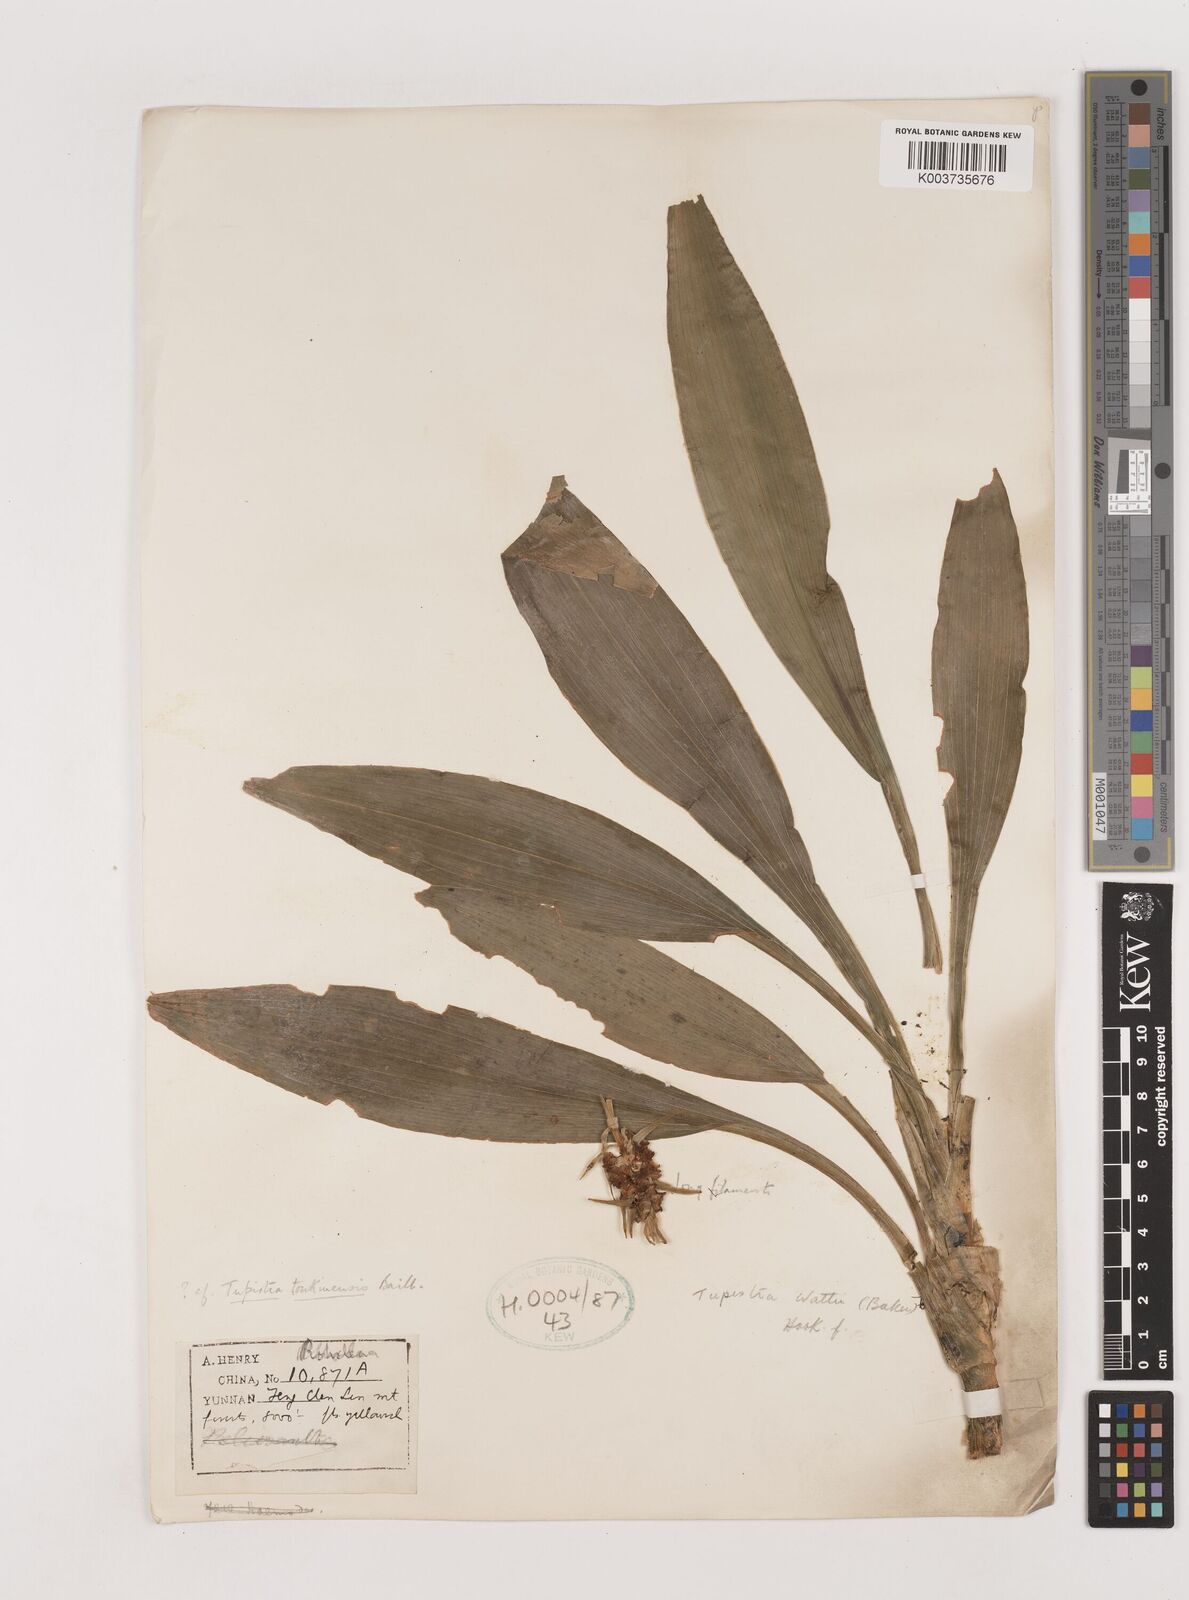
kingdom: Plantae
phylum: Tracheophyta
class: Liliopsida
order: Asparagales
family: Asparagaceae
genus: Rohdea
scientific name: Rohdea wattii
